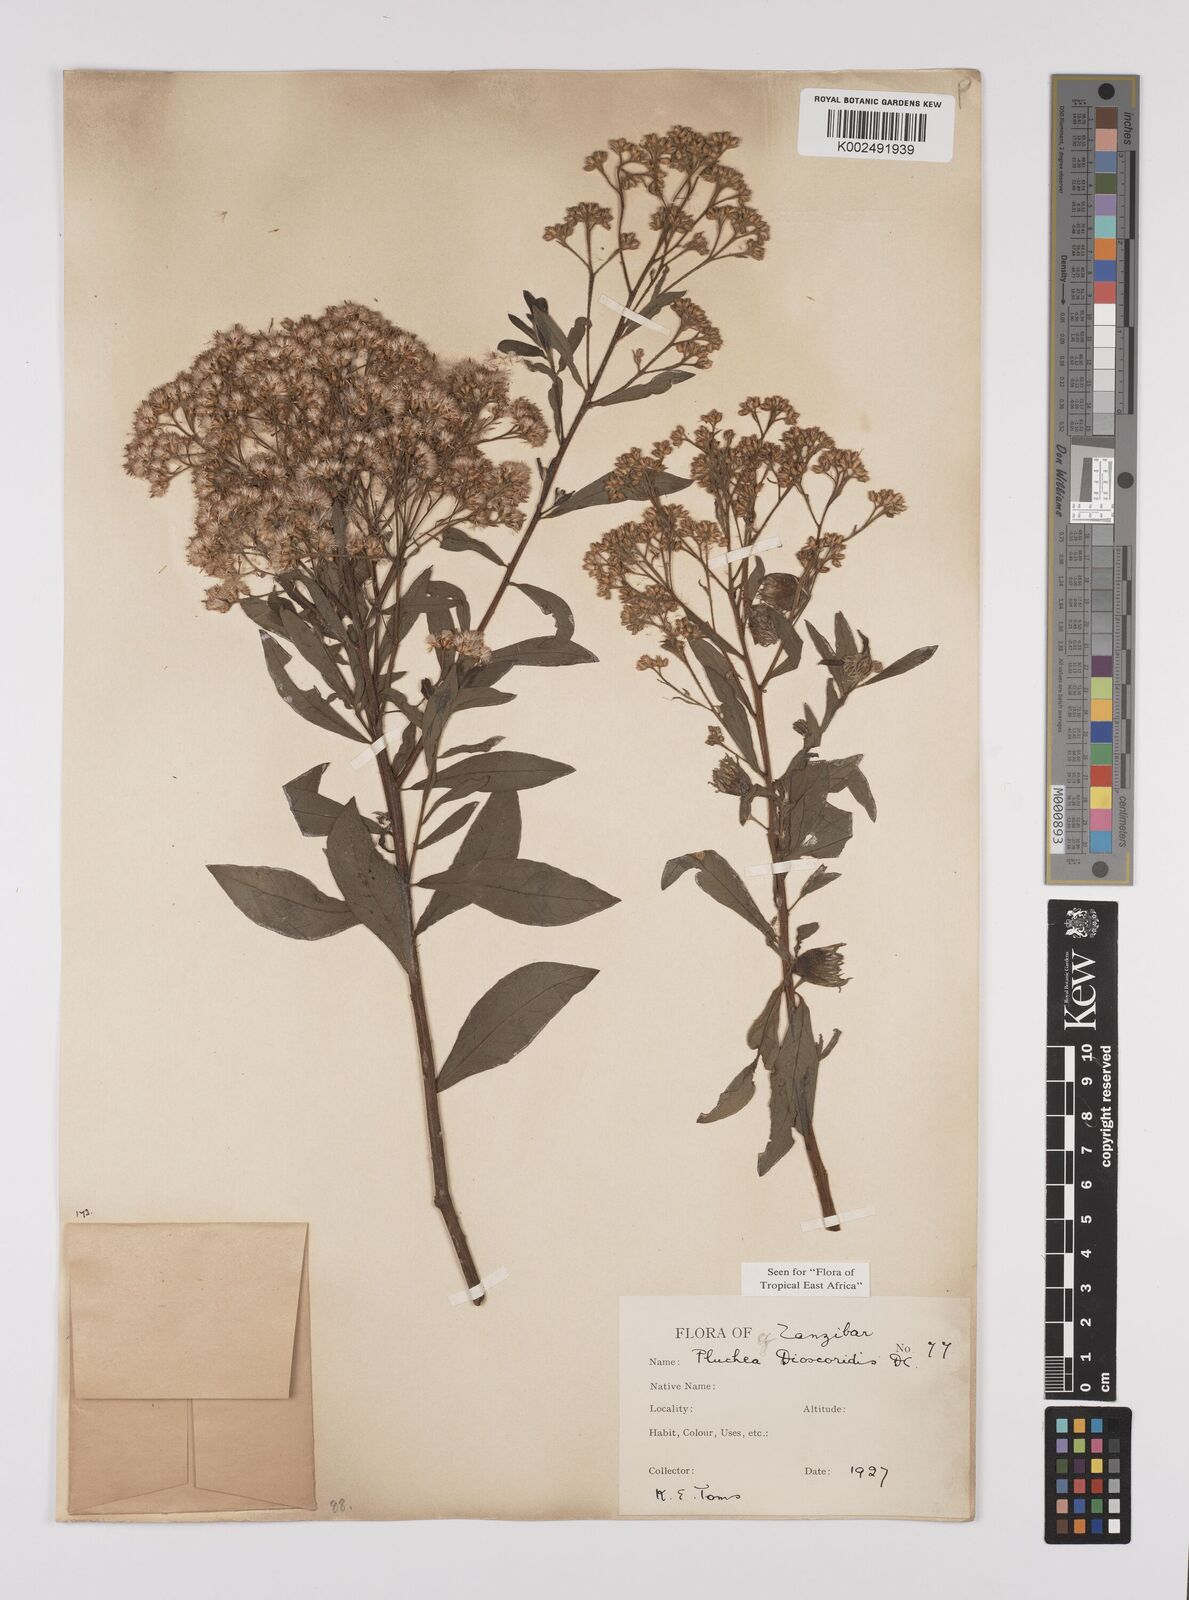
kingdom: Plantae
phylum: Tracheophyta
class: Magnoliopsida
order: Asterales
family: Asteraceae
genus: Pluchea
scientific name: Pluchea dioscoridis
